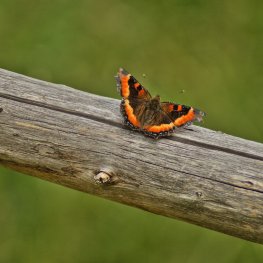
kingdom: Animalia
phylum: Arthropoda
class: Insecta
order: Lepidoptera
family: Nymphalidae
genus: Aglais
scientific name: Aglais milberti
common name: Milbert's Tortoiseshell
